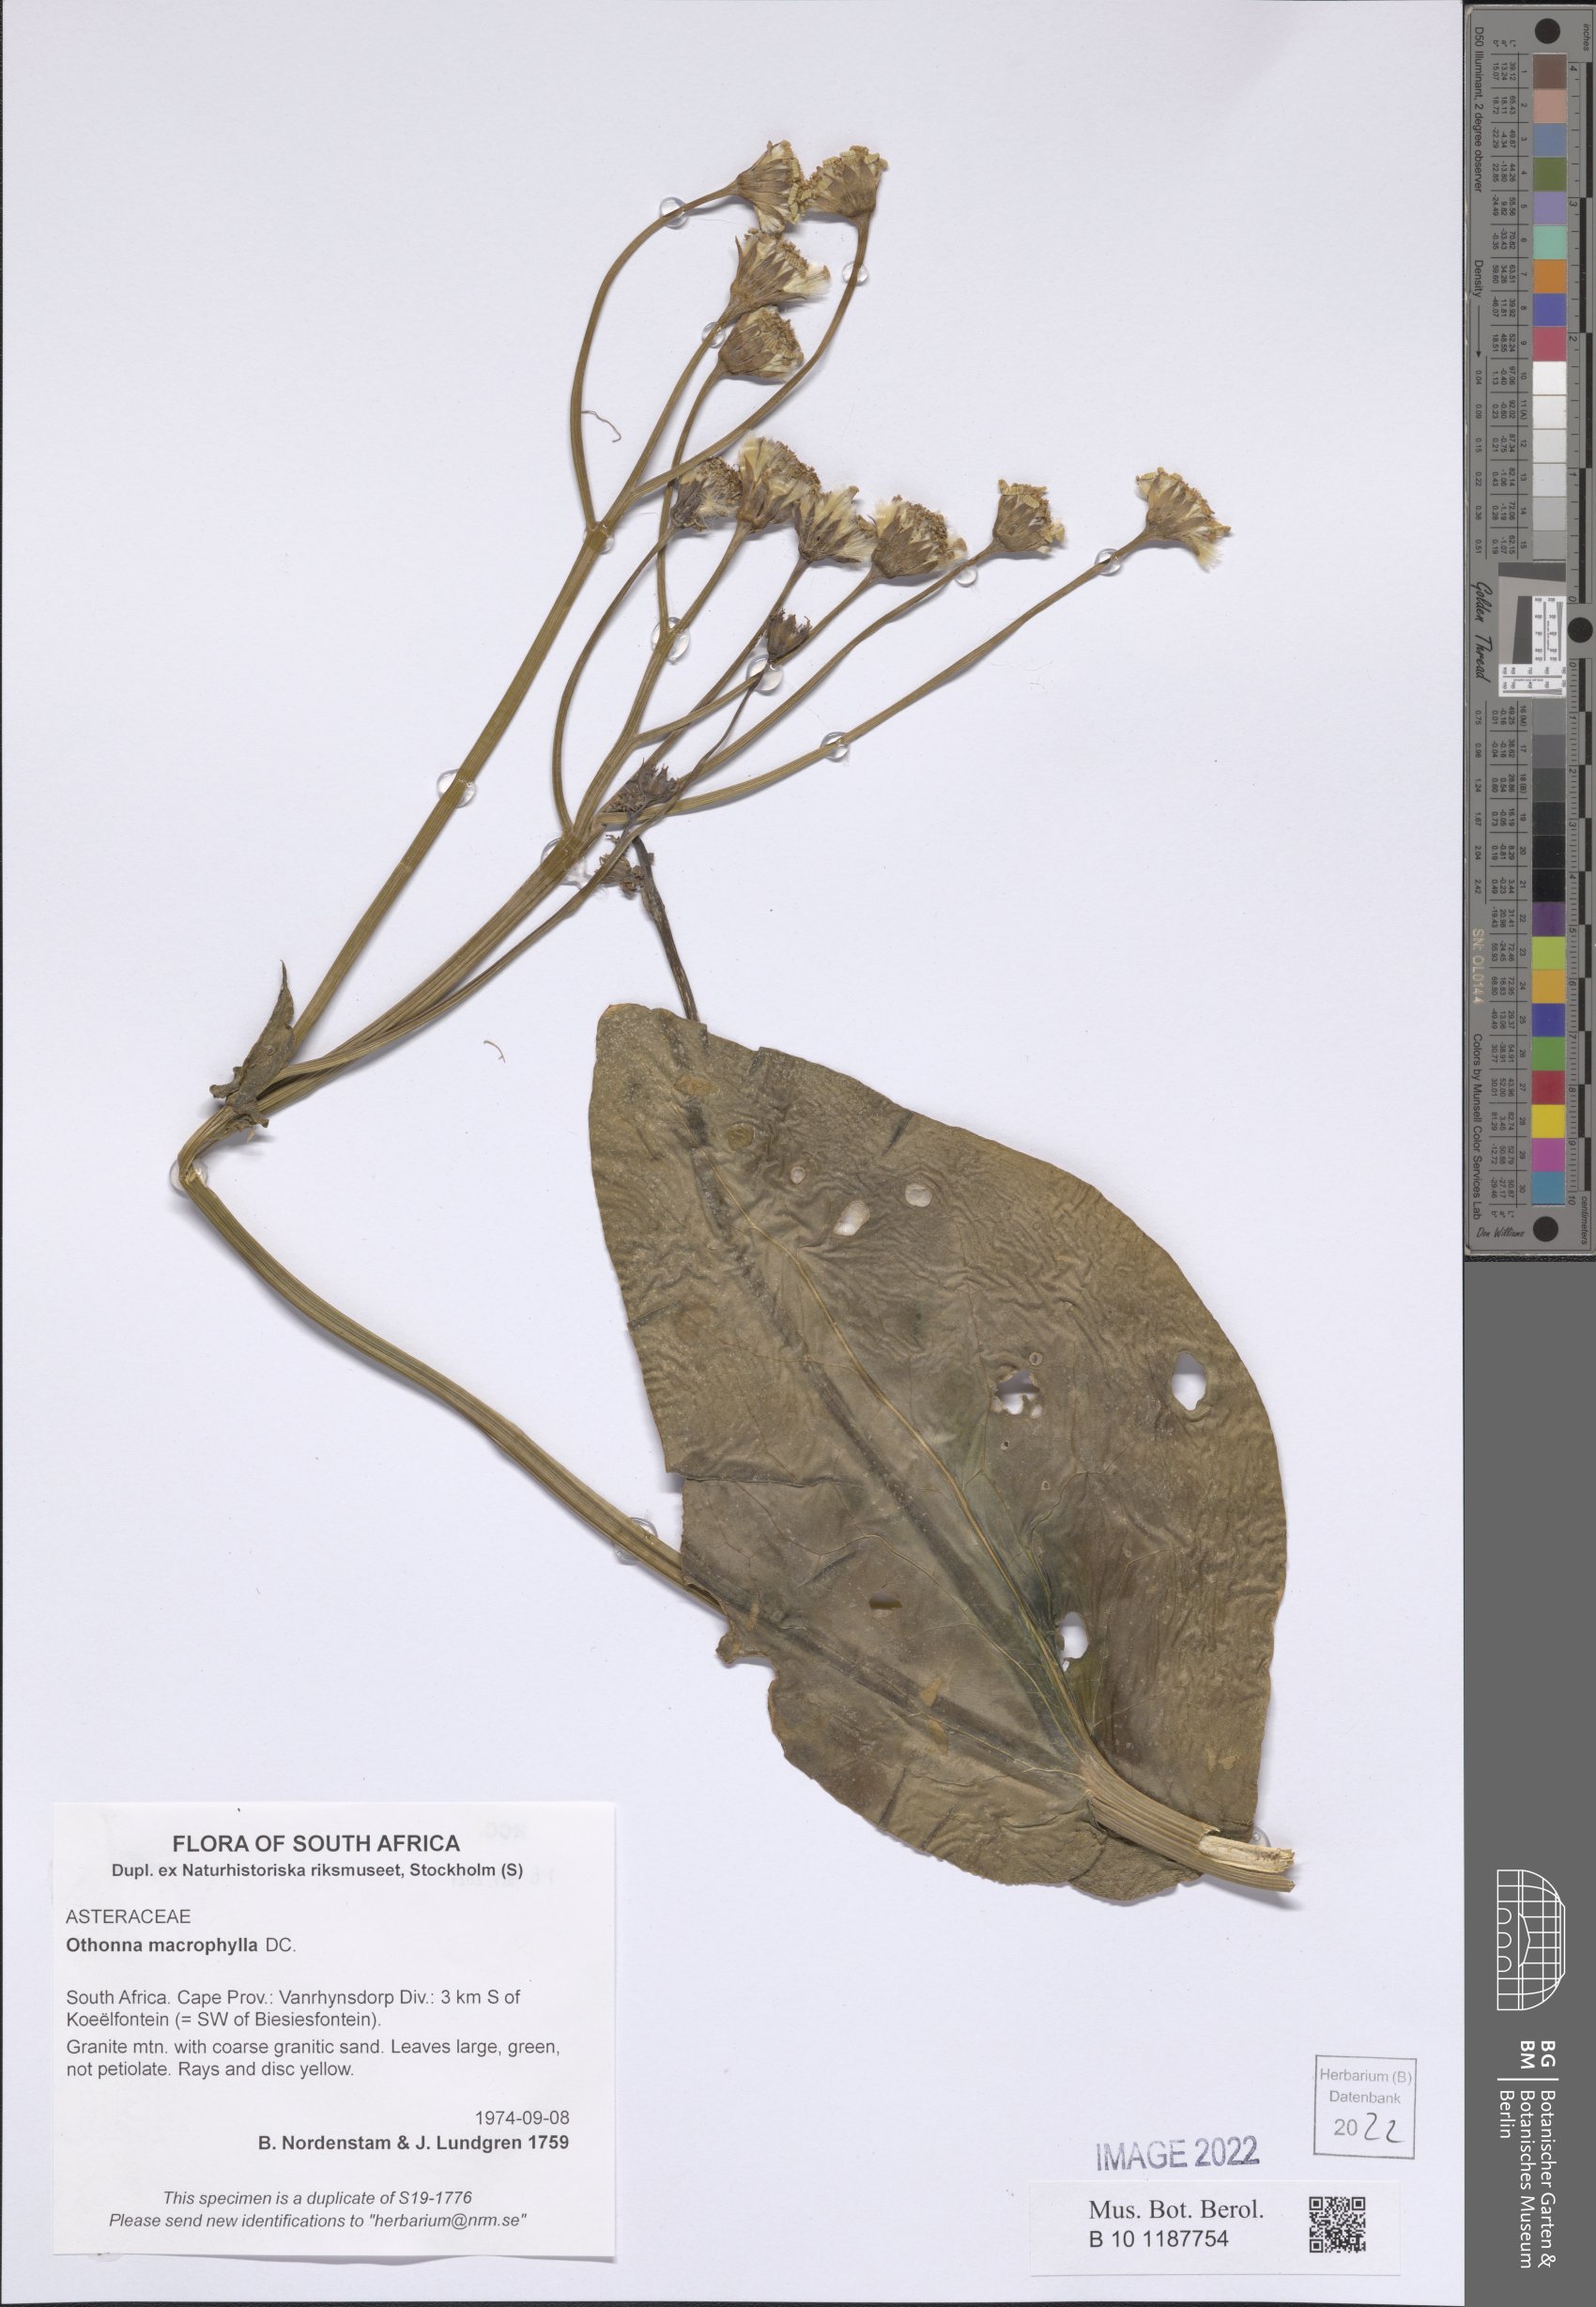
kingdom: Plantae
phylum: Tracheophyta
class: Magnoliopsida
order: Asterales
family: Asteraceae
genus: Othonna
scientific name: Othonna macrophylla
